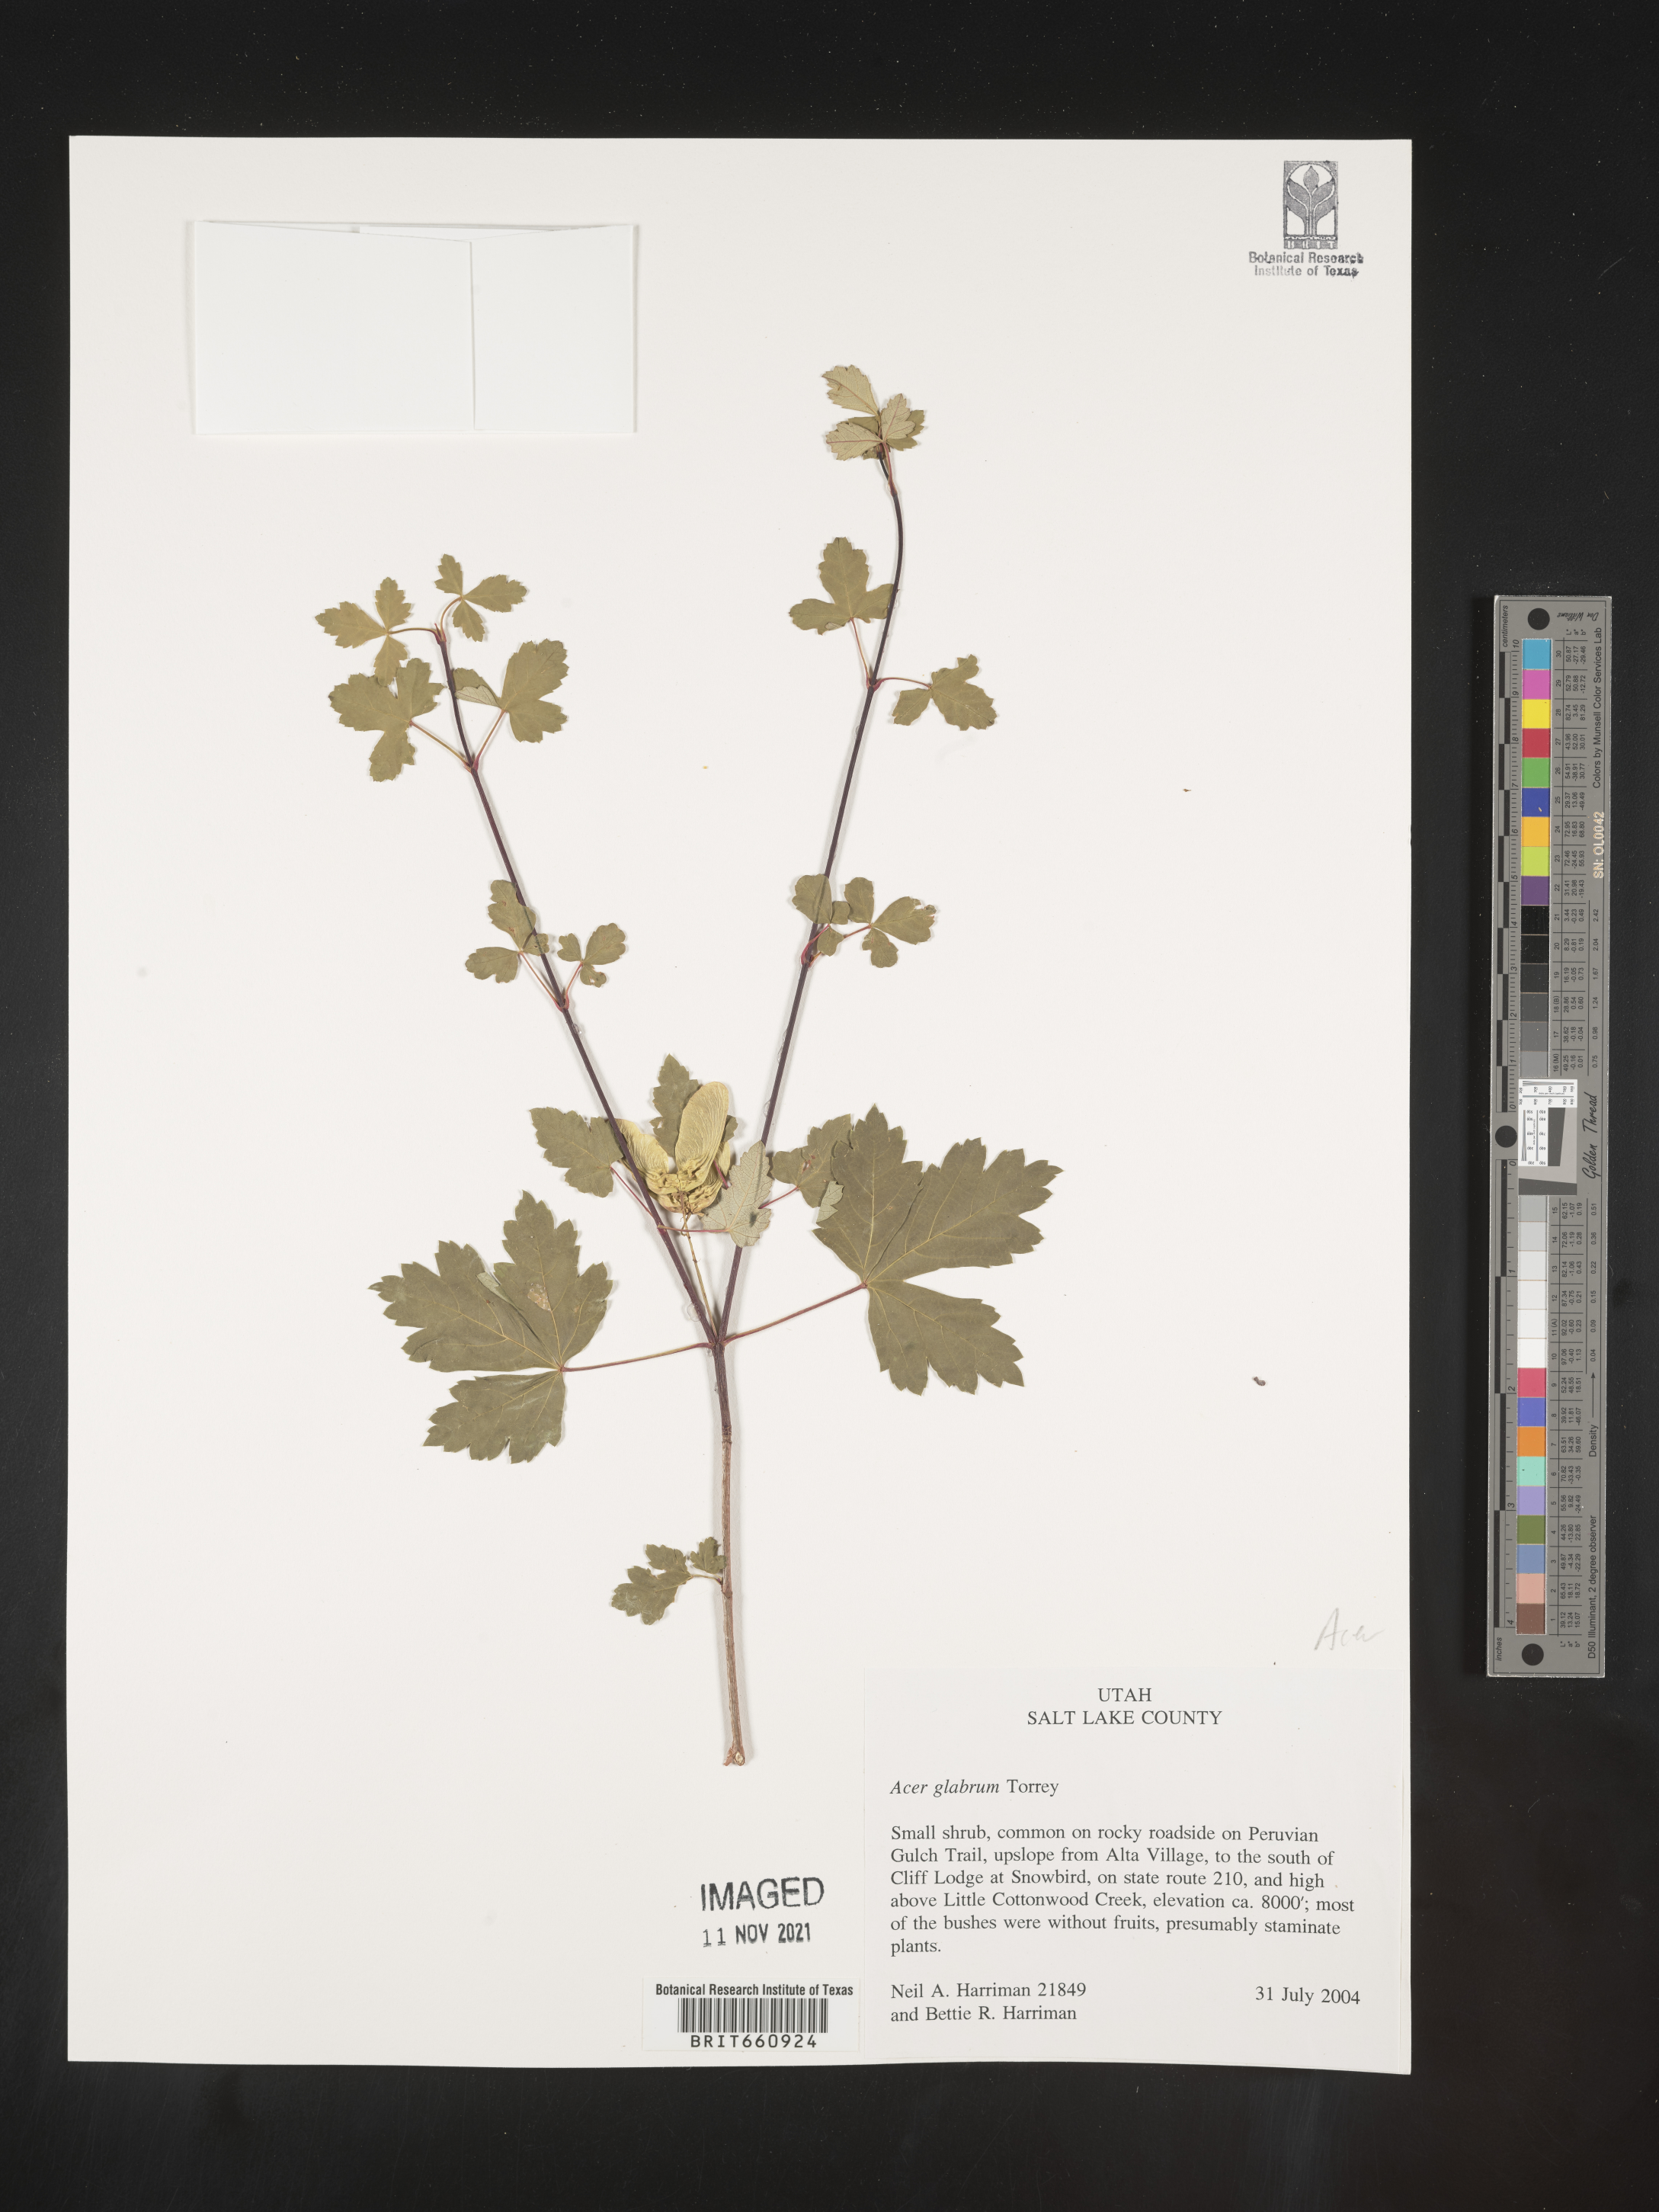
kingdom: Plantae
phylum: Tracheophyta
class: Magnoliopsida
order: Sapindales
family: Sapindaceae
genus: Acer
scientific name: Acer glabrum
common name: Rocky mountain maple
